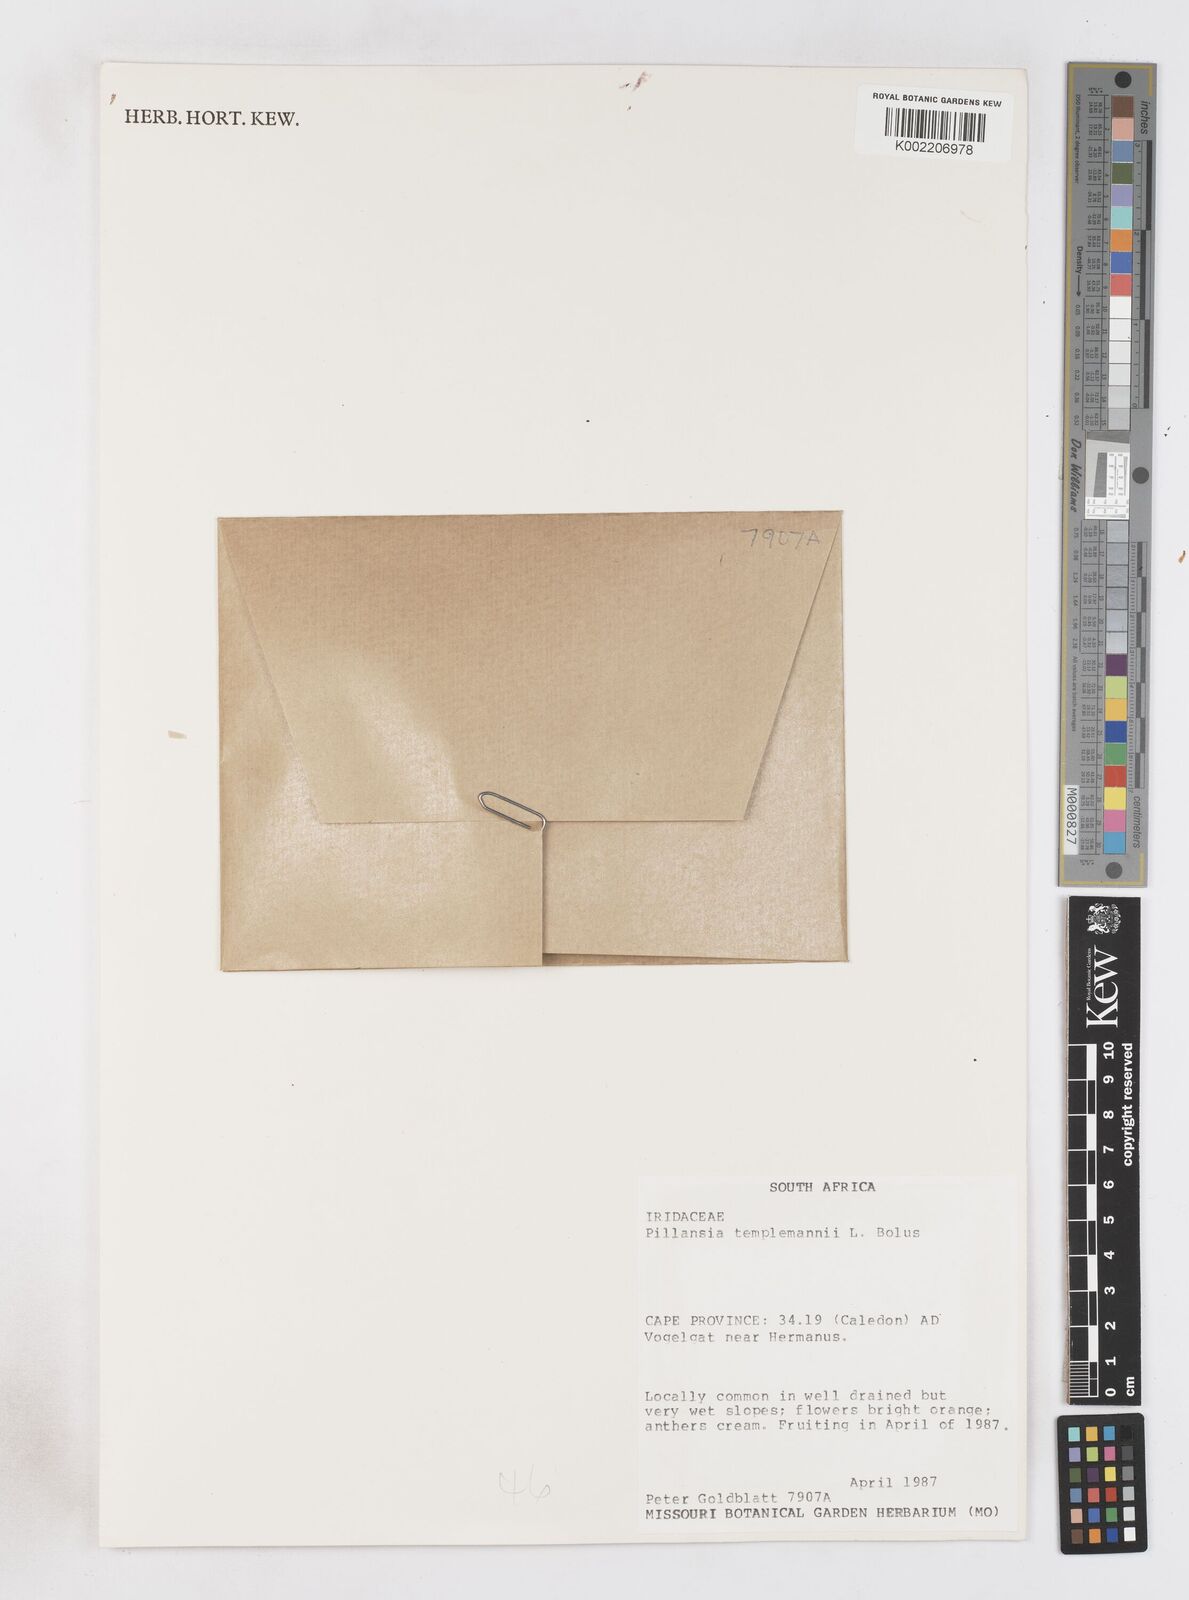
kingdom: Plantae
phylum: Tracheophyta
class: Liliopsida
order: Asparagales
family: Iridaceae
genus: Pillansia
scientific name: Pillansia templemannii
